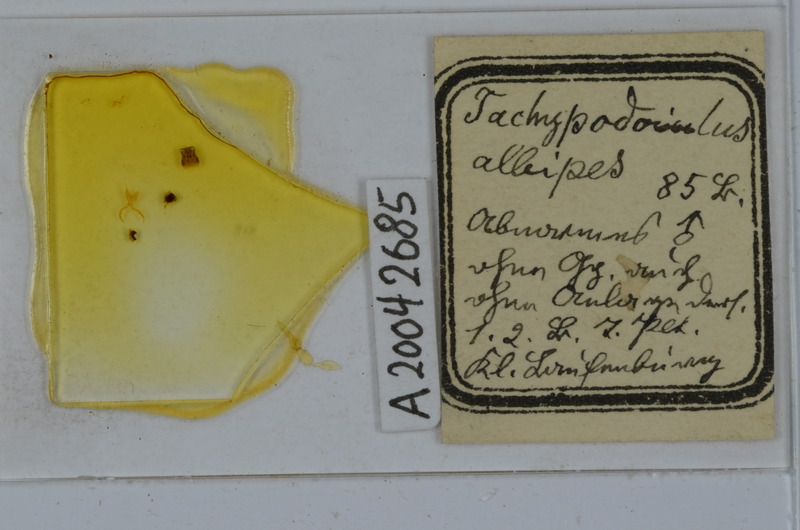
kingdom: Animalia
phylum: Arthropoda
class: Diplopoda
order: Julida
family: Julidae
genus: Tachypodoiulus
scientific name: Tachypodoiulus niger
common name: White-legged snake millipede
